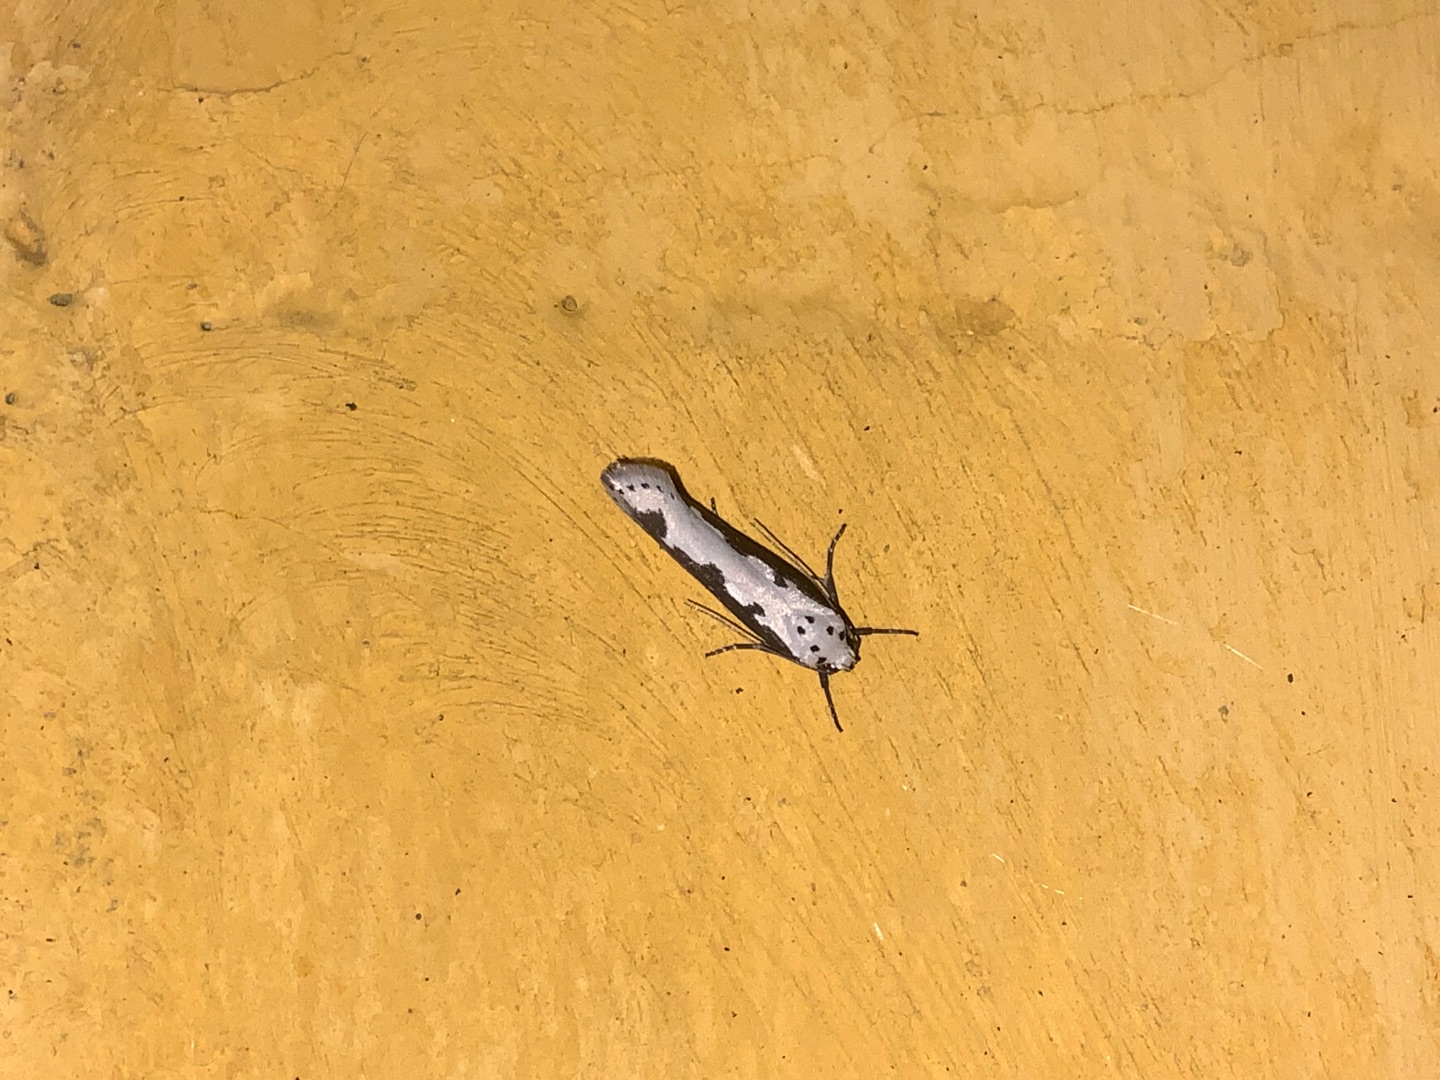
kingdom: Animalia
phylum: Arthropoda
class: Insecta
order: Lepidoptera
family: Ethmiidae
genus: Ethmia
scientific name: Ethmia bipunctella
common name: Slangehovedmøl
